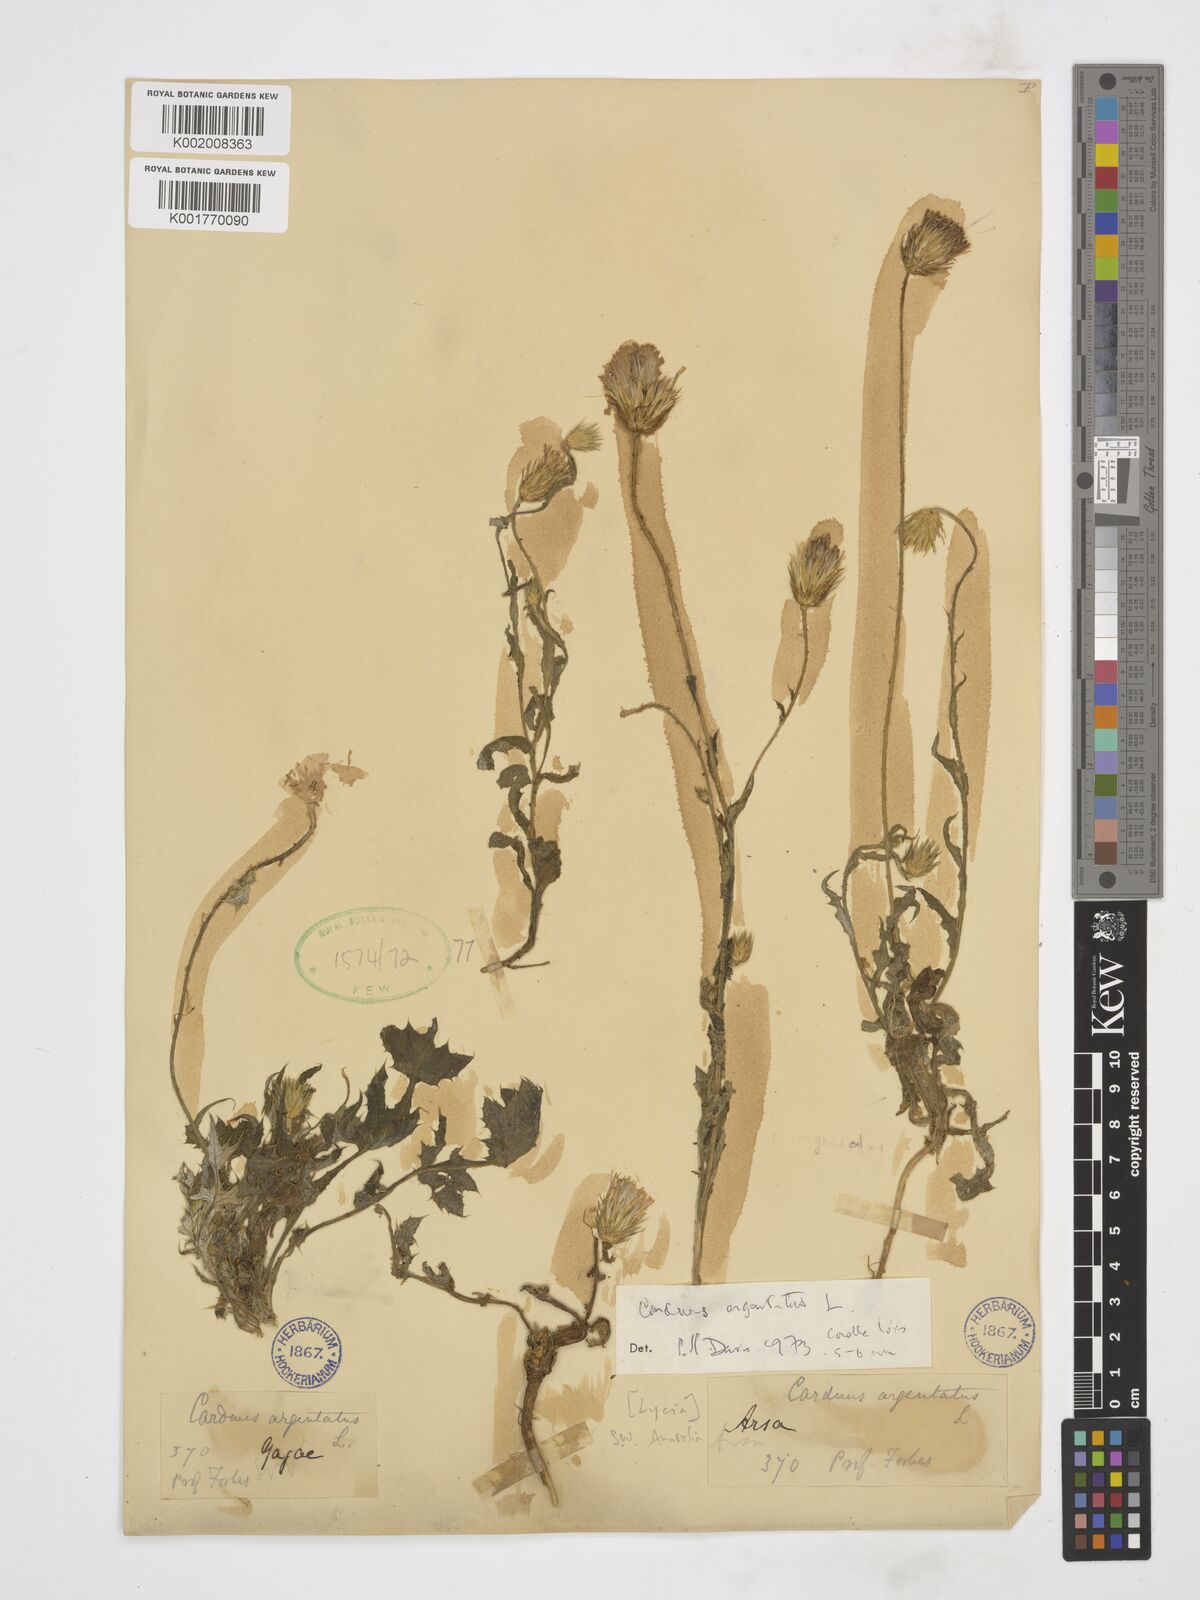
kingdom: Plantae
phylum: Tracheophyta
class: Magnoliopsida
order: Asterales
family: Asteraceae
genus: Carduus
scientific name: Carduus argentatus
